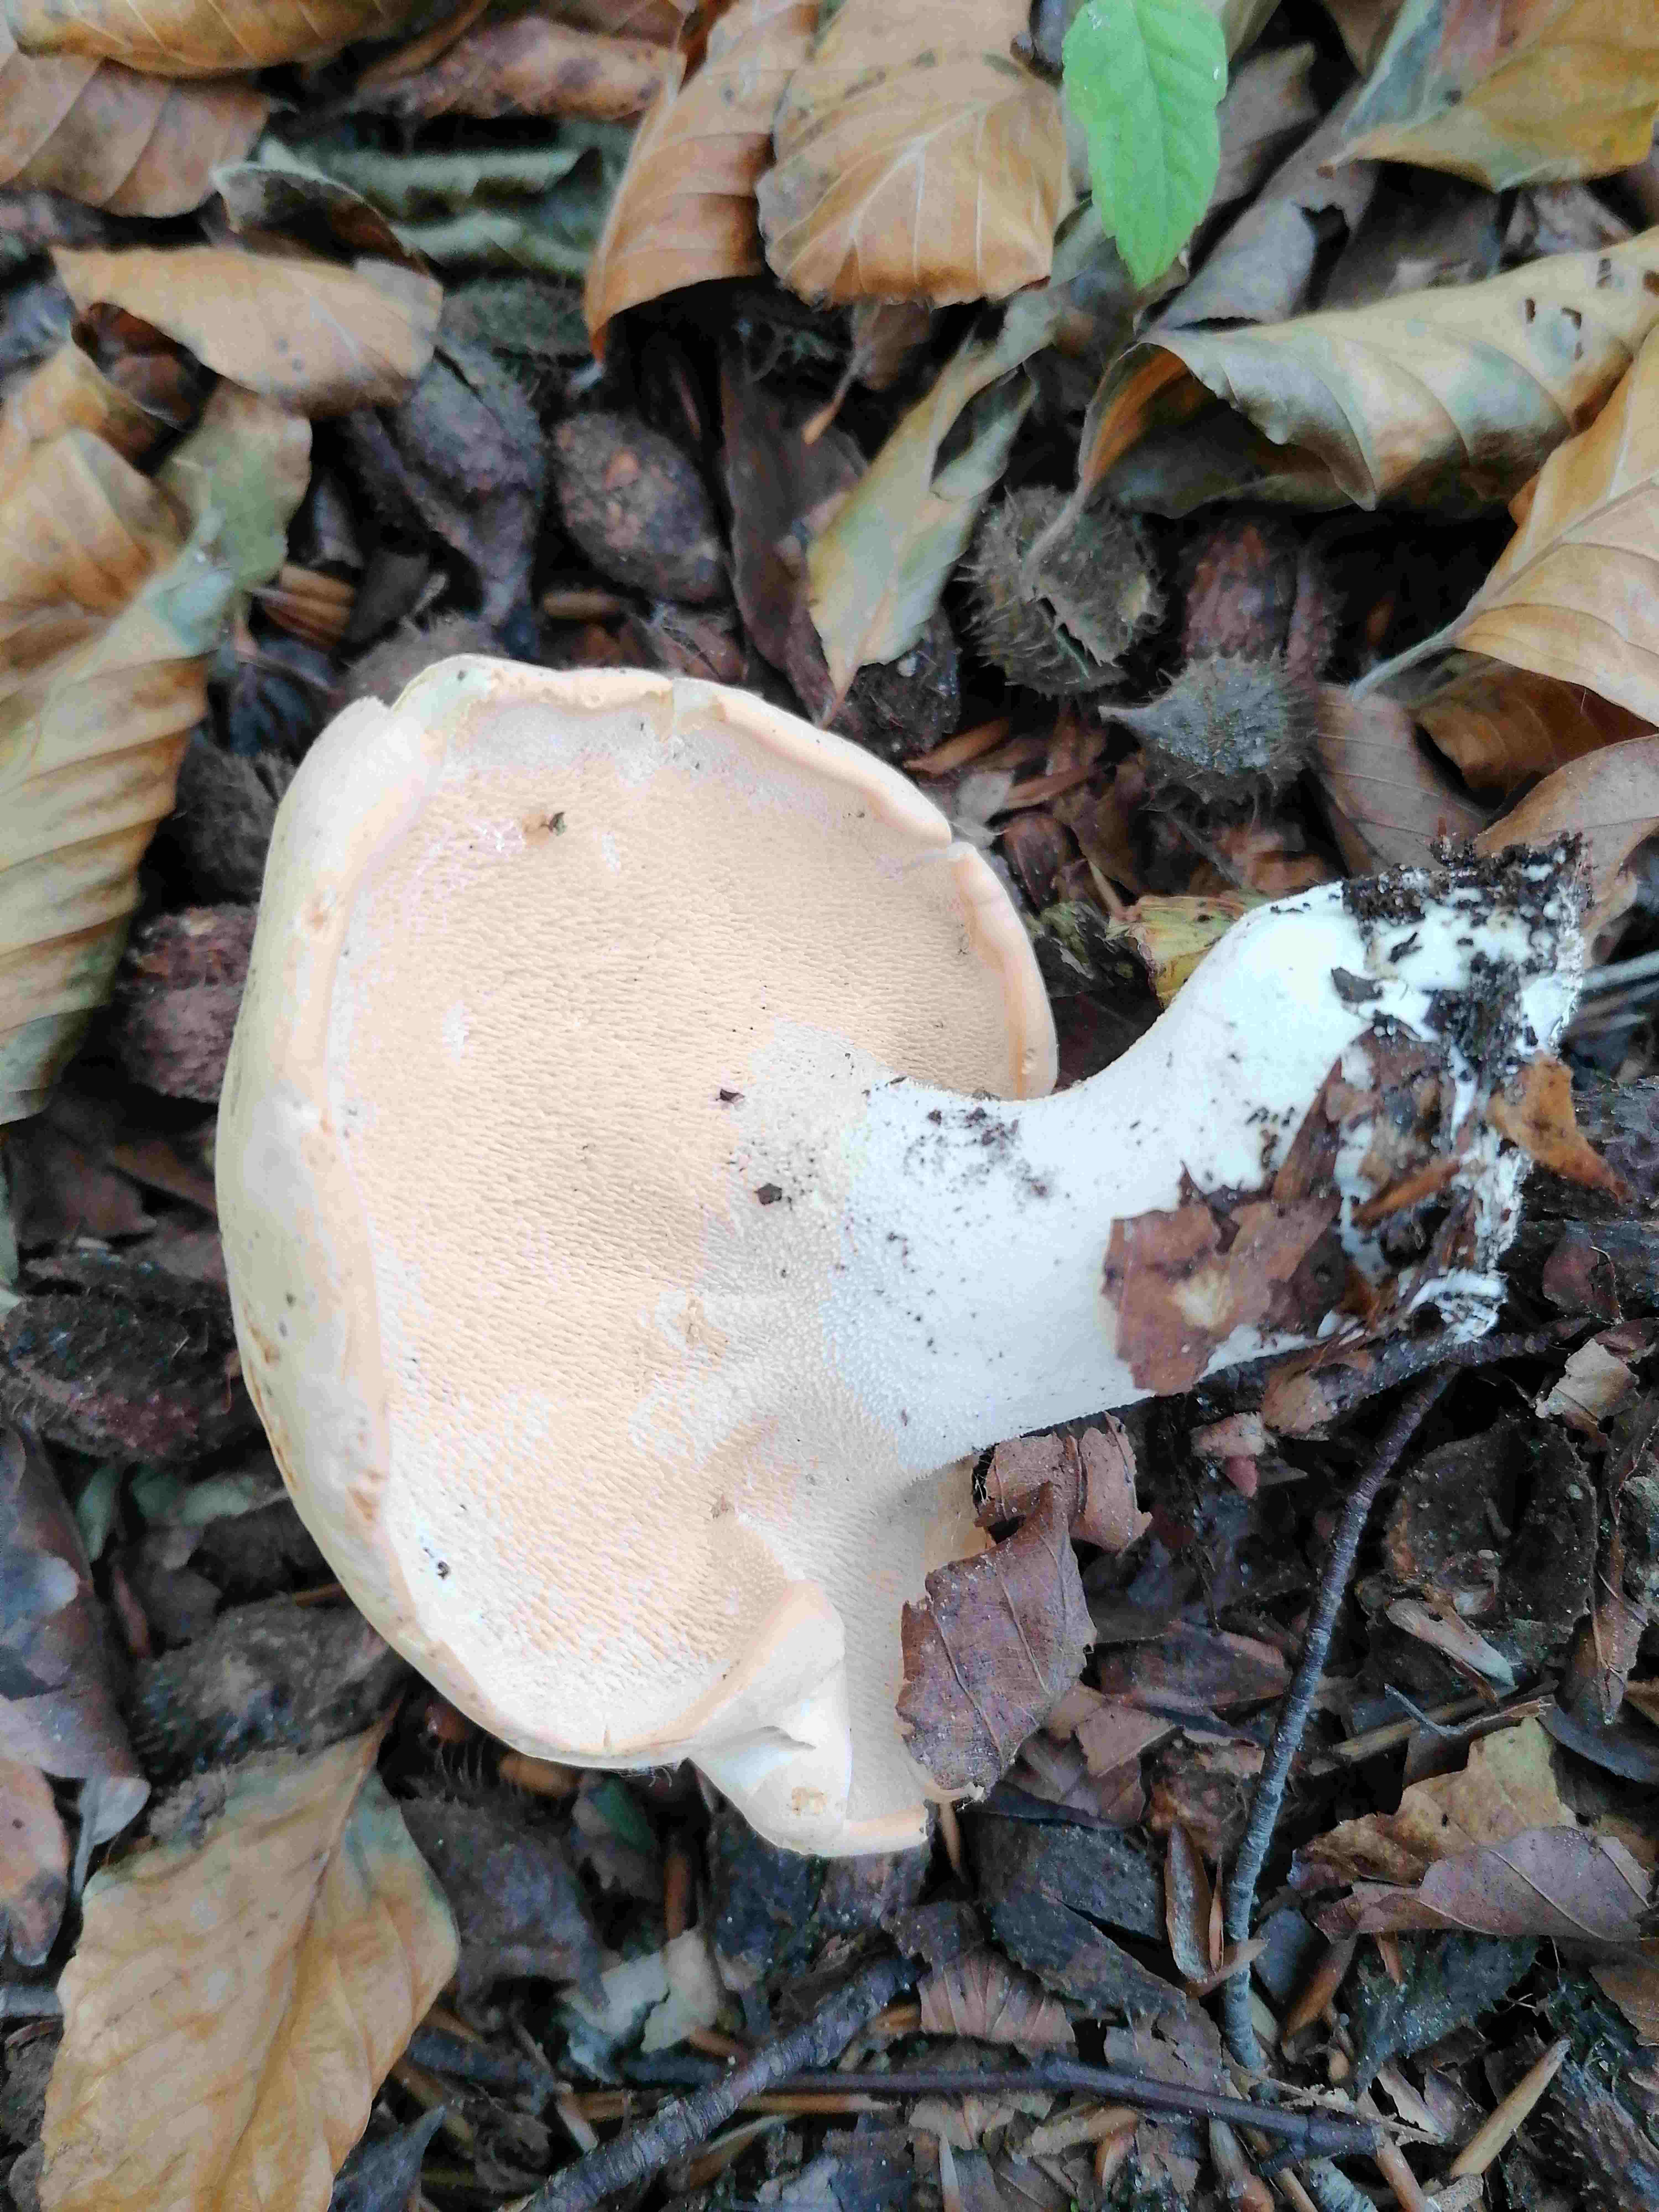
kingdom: Fungi
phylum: Basidiomycota
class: Agaricomycetes
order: Cantharellales
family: Hydnaceae
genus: Hydnum
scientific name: Hydnum
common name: pigsvamp
